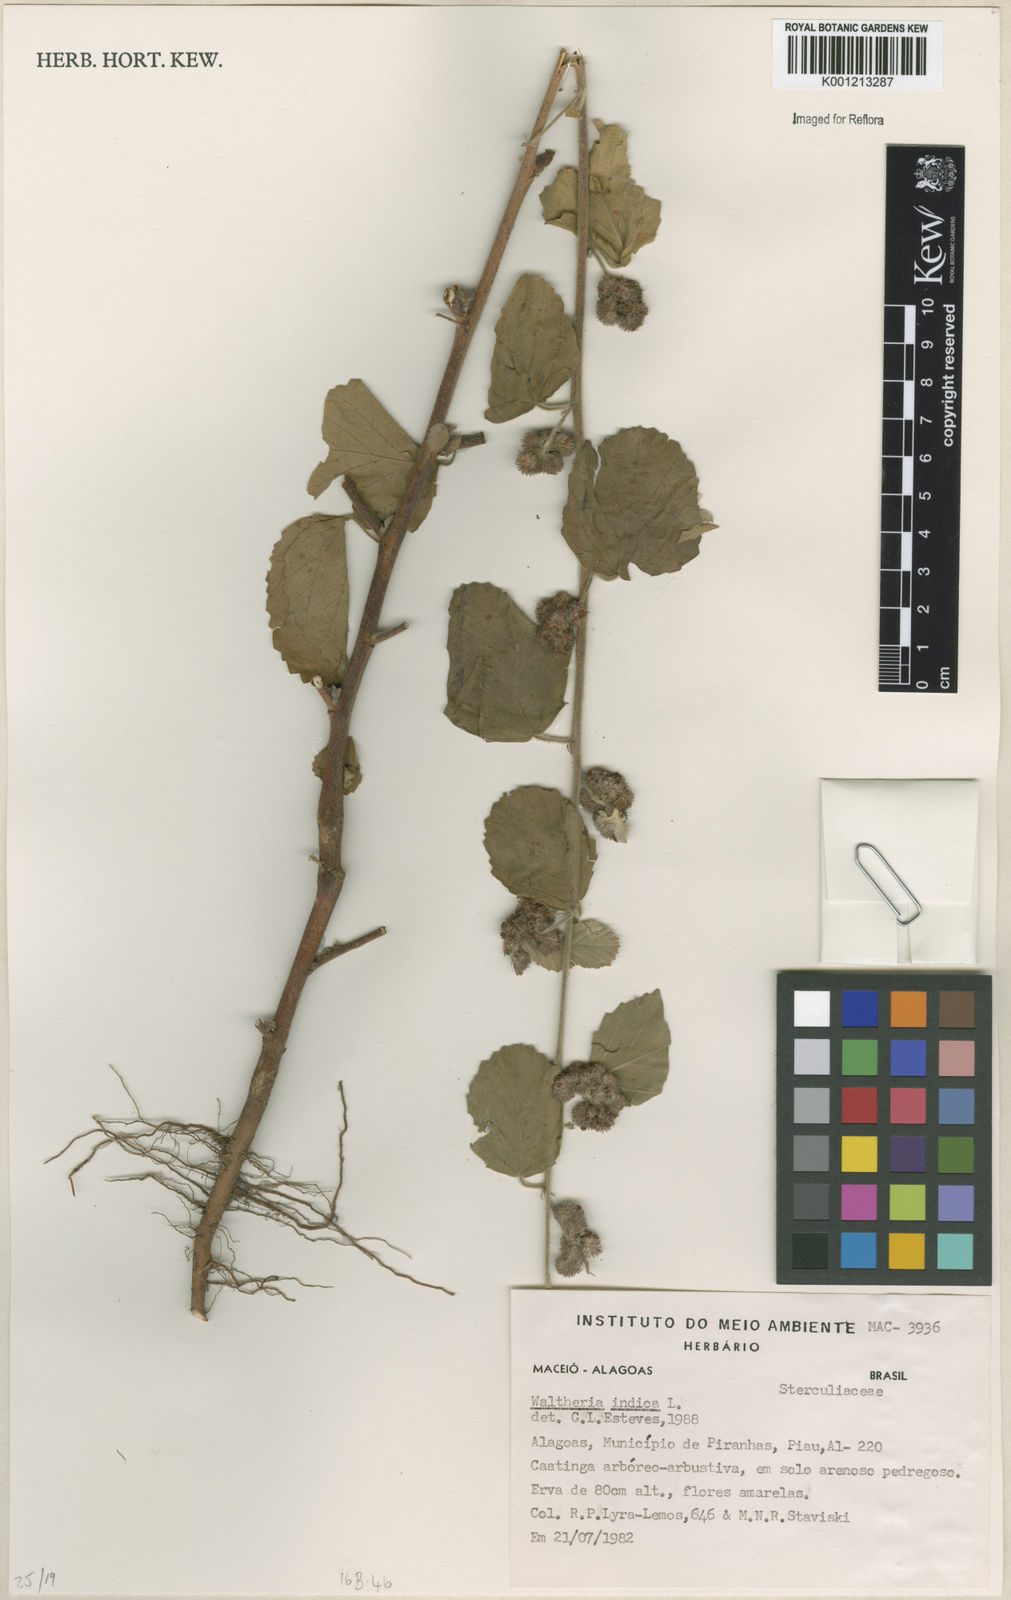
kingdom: Plantae
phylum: Tracheophyta
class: Magnoliopsida
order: Malvales
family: Malvaceae
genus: Waltheria
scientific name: Waltheria indica
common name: Leather-coat
